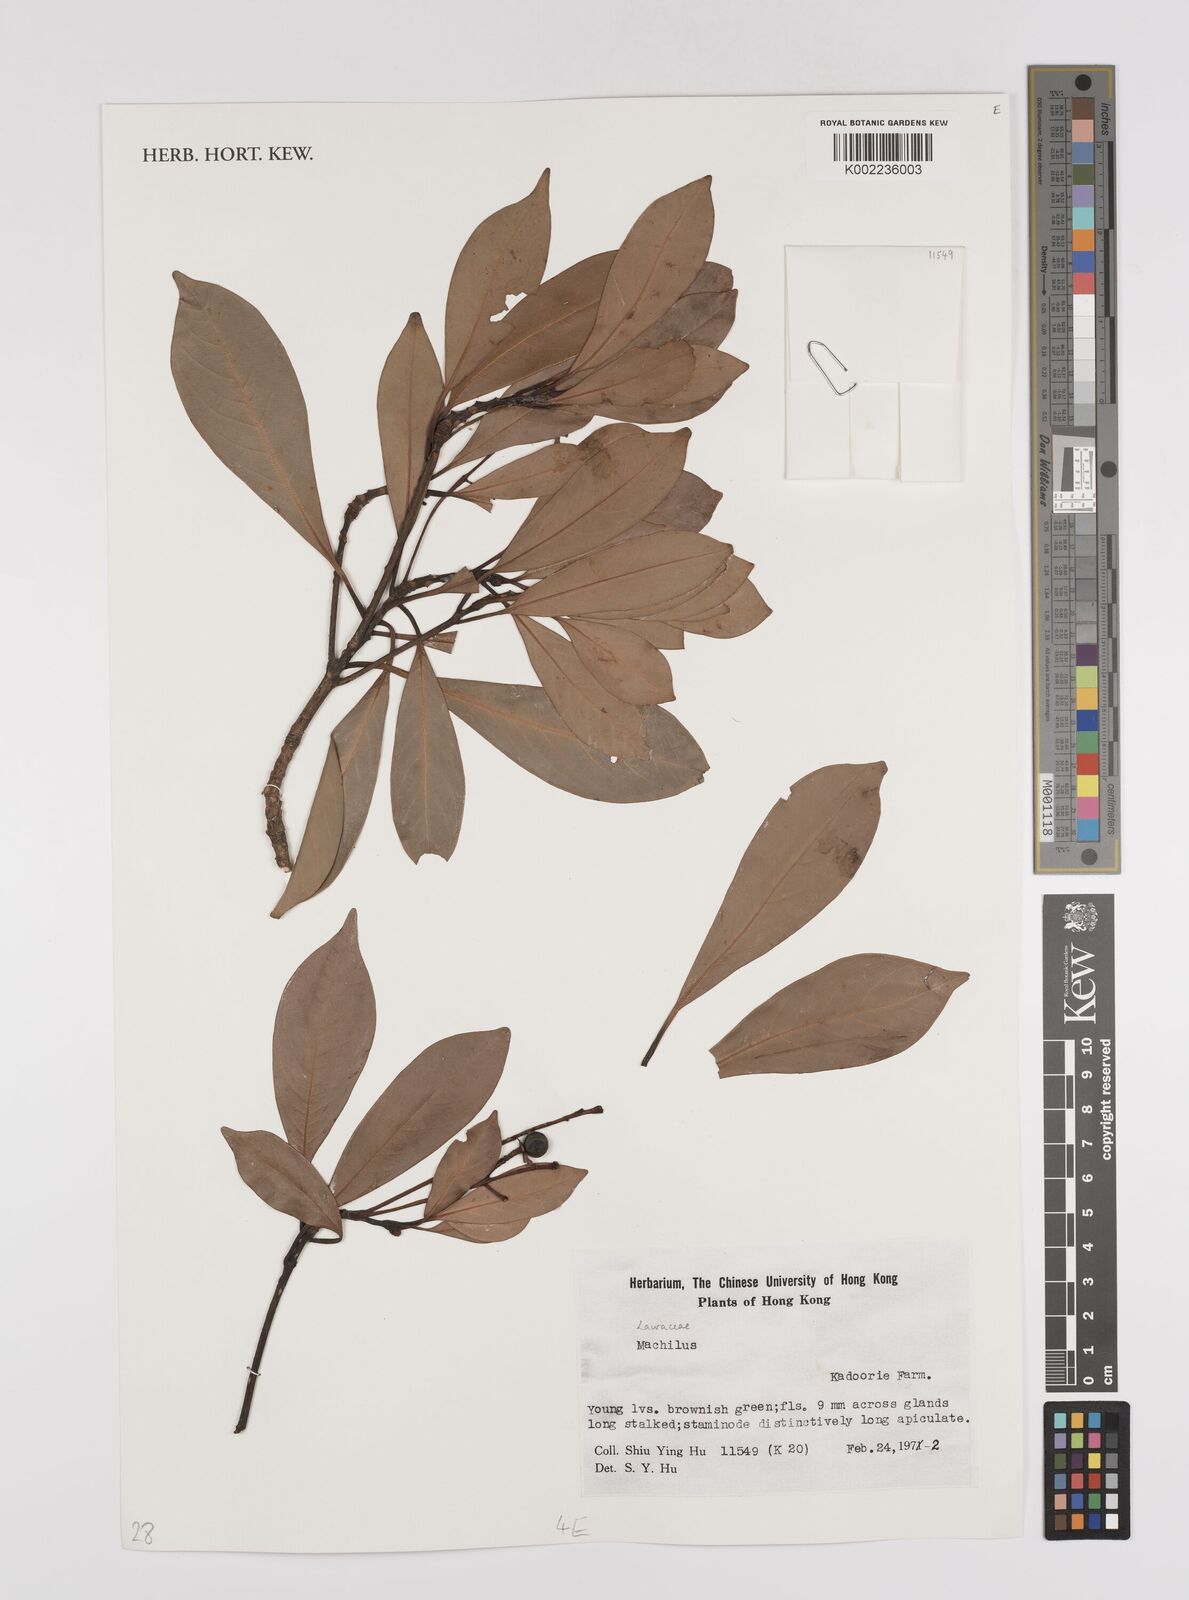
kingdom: Plantae
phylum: Tracheophyta
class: Magnoliopsida
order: Laurales
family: Lauraceae
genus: Persea
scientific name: Persea
